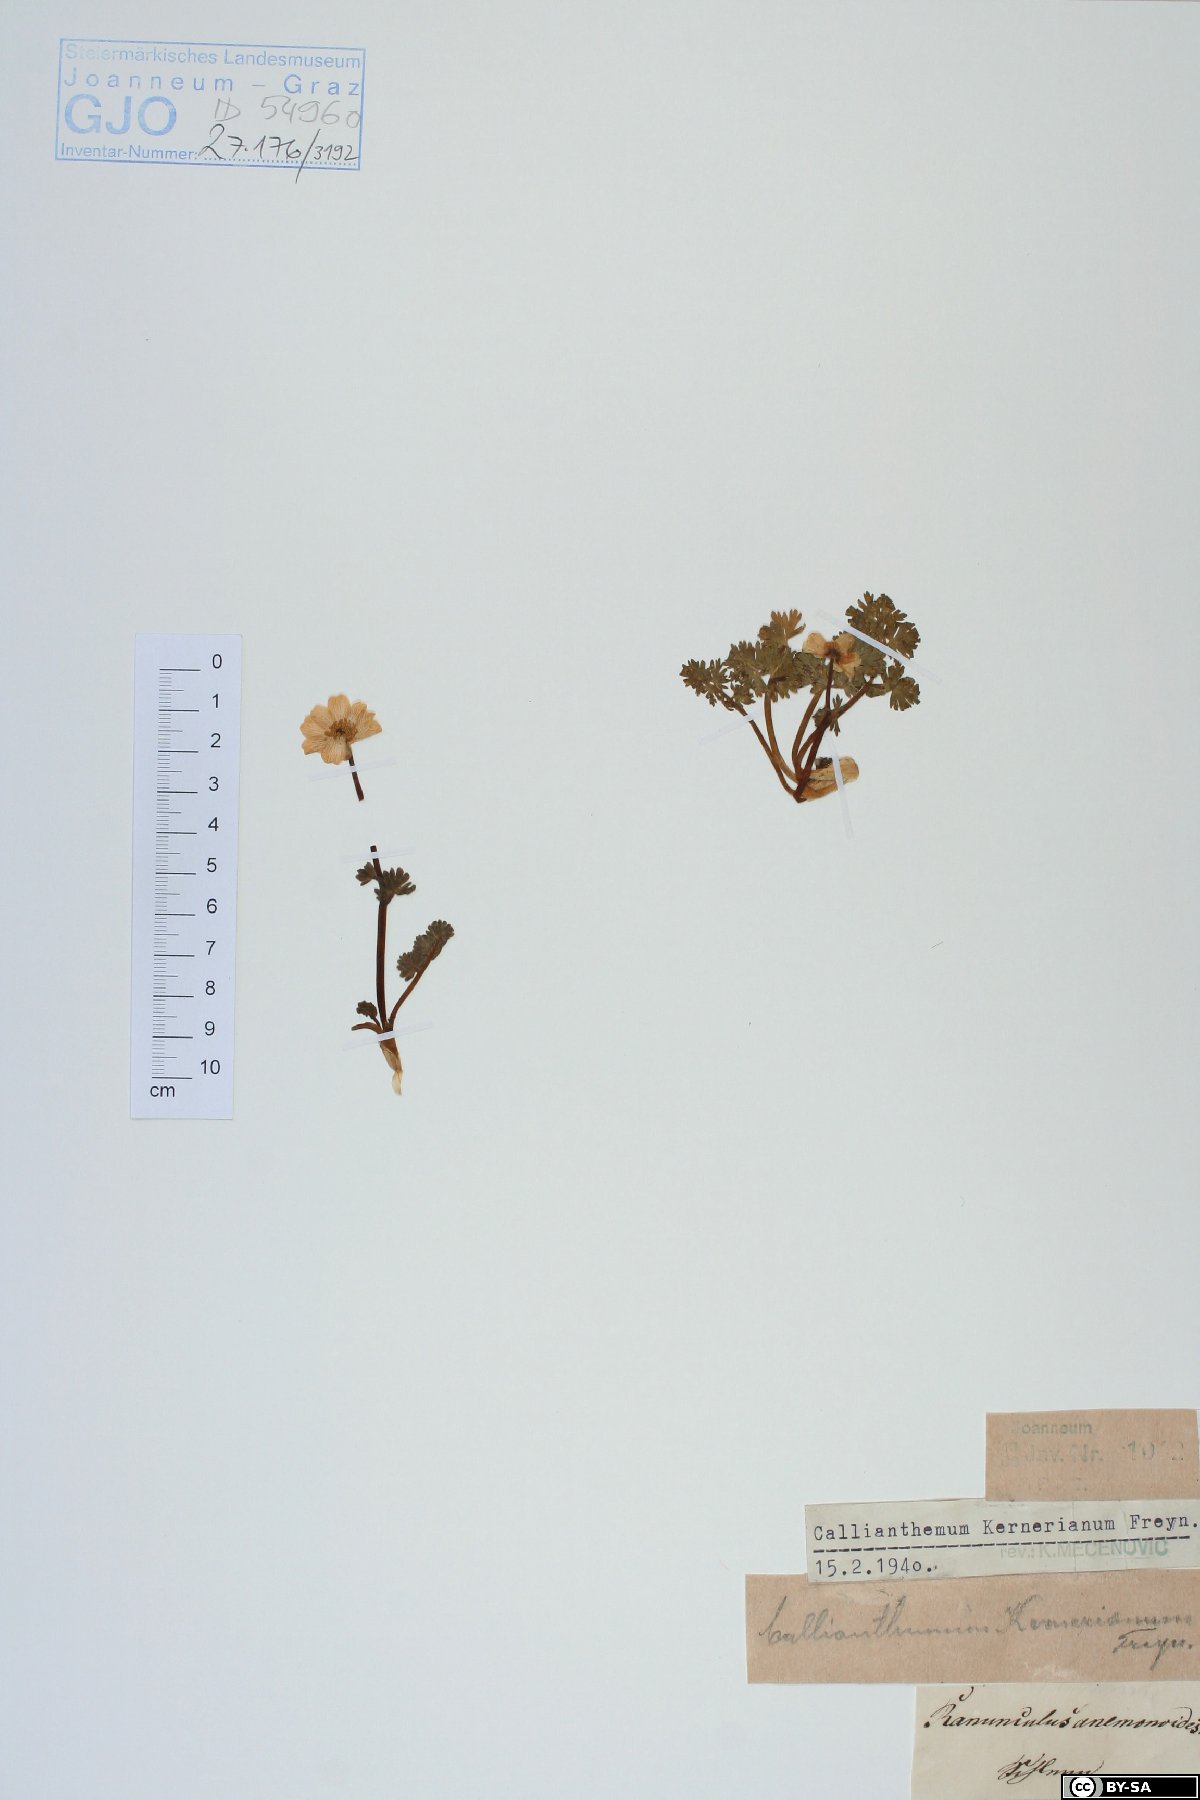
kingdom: Plantae
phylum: Tracheophyta
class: Magnoliopsida
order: Ranunculales
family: Ranunculaceae
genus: Callianthemum
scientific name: Callianthemum kernerianum
